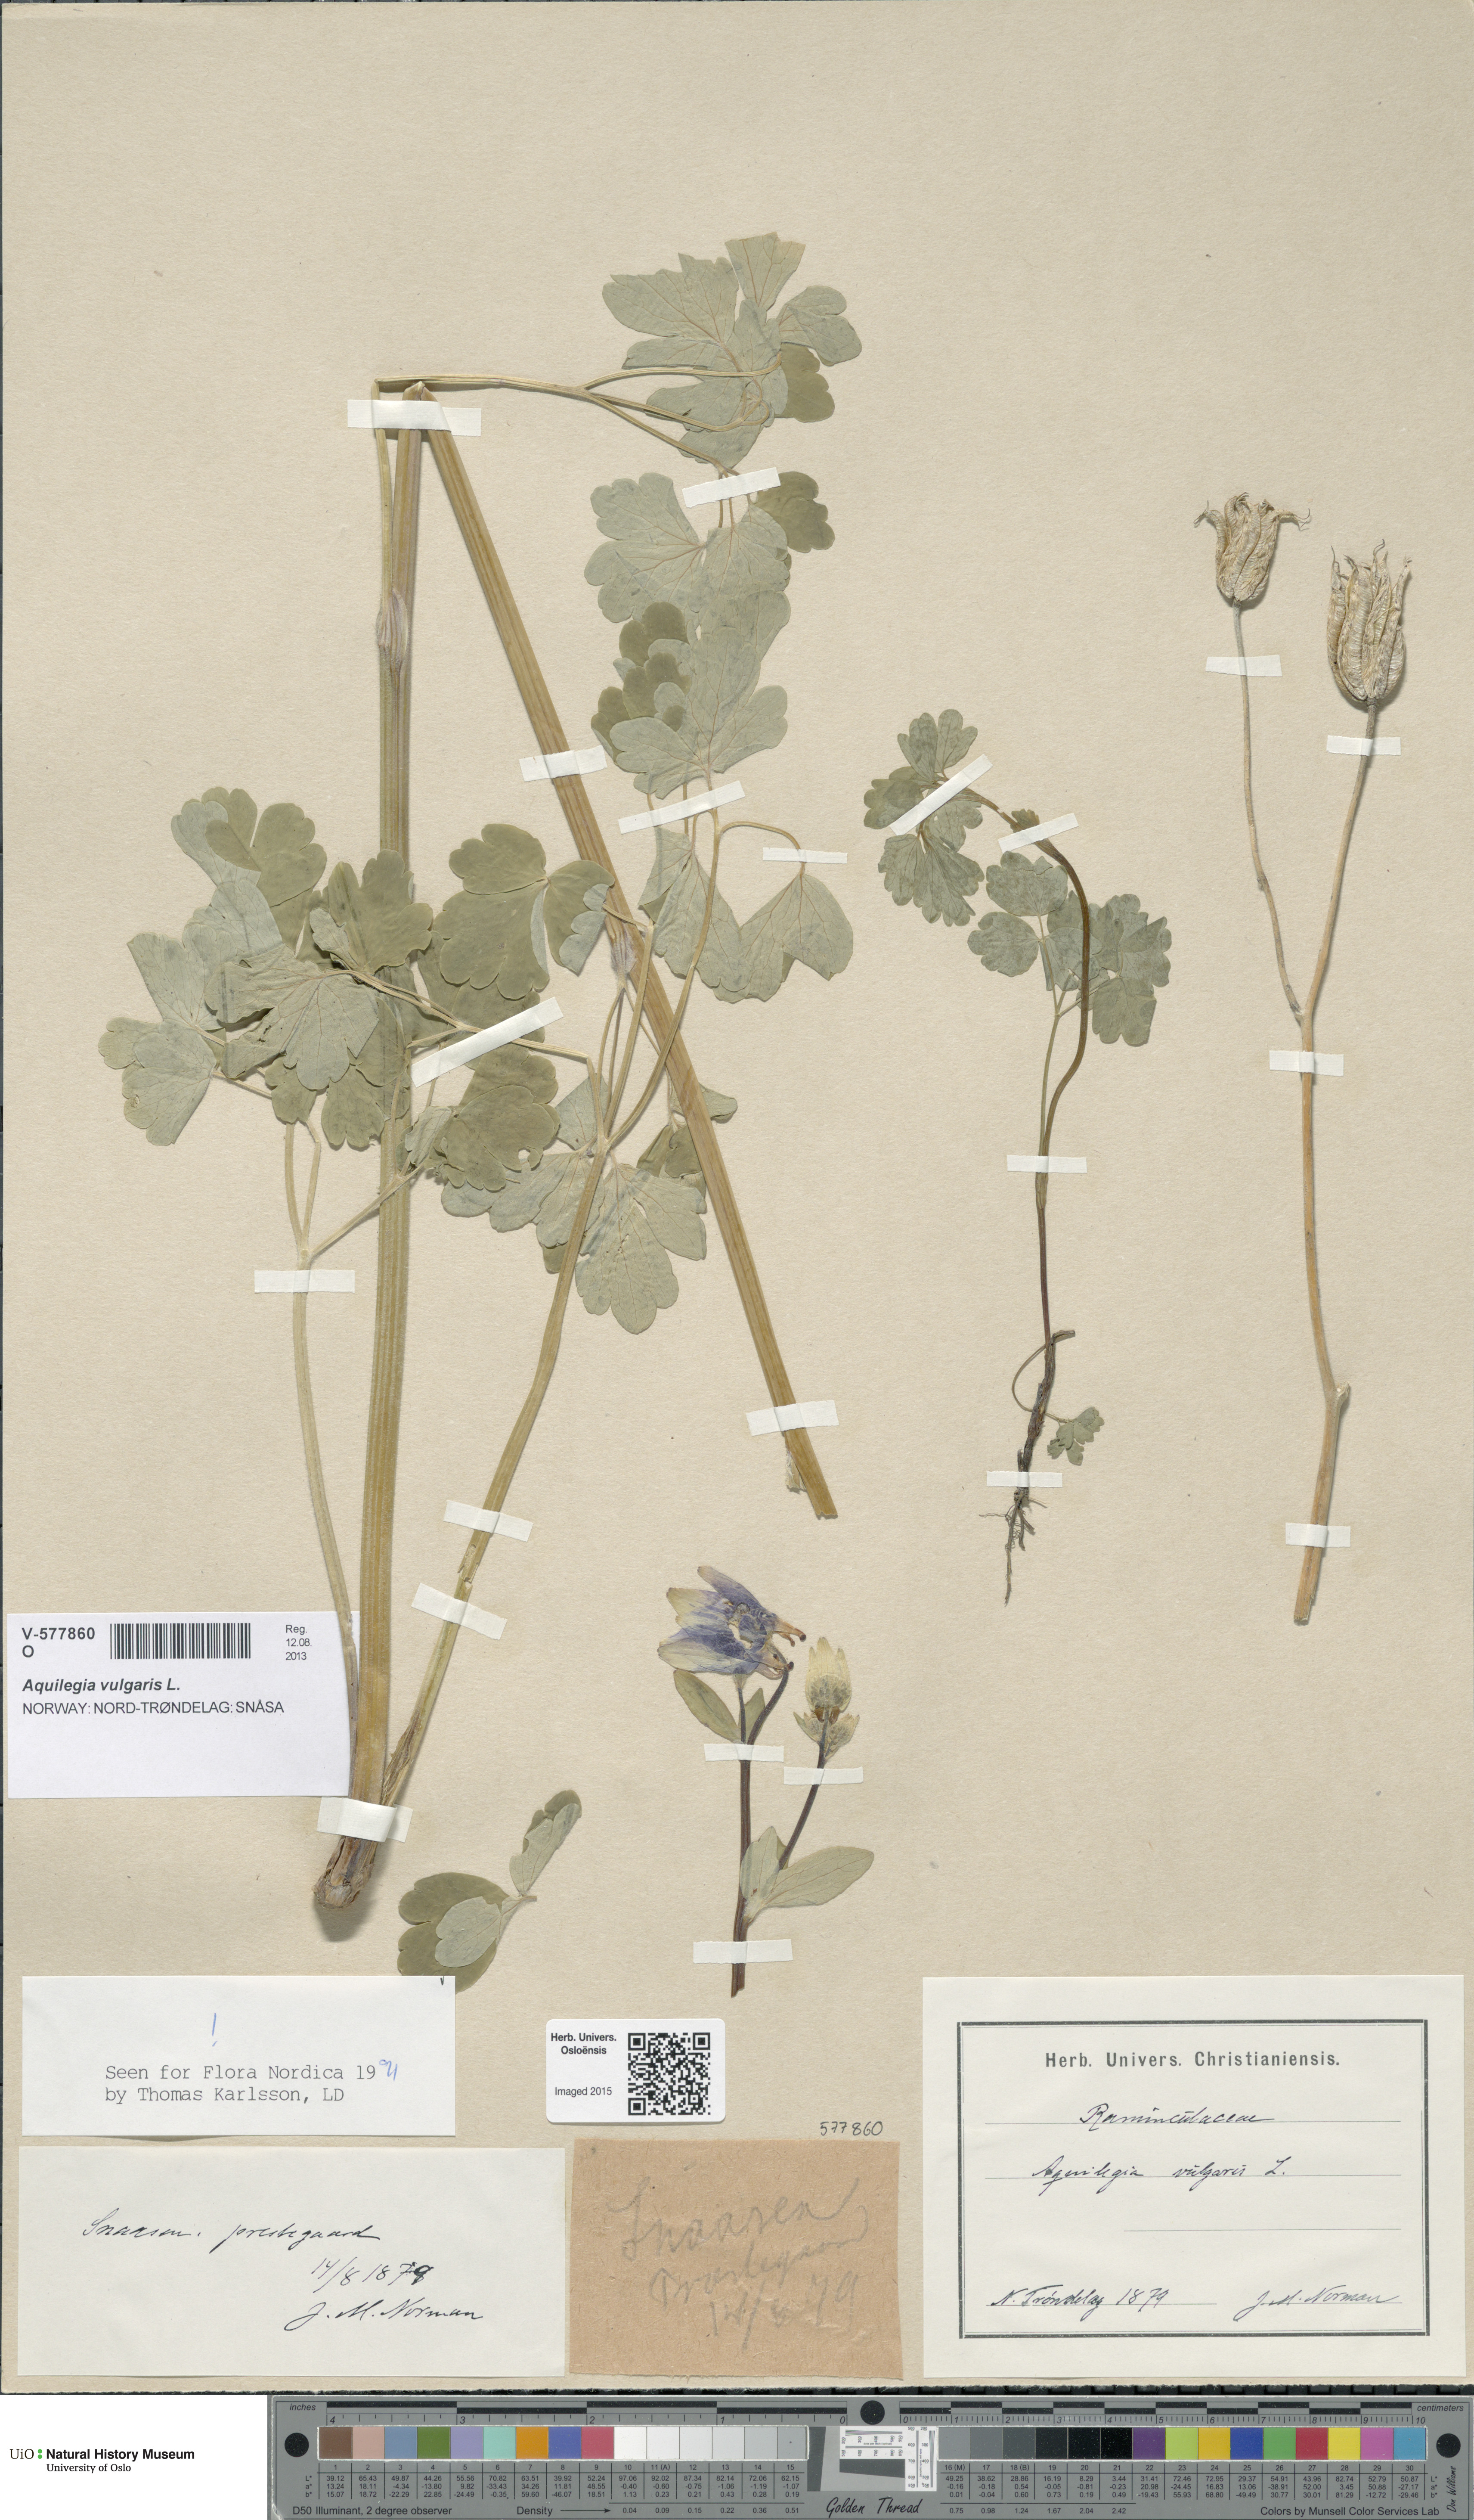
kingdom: Plantae
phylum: Tracheophyta
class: Magnoliopsida
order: Ranunculales
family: Ranunculaceae
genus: Aquilegia
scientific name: Aquilegia vulgaris
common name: Columbine
